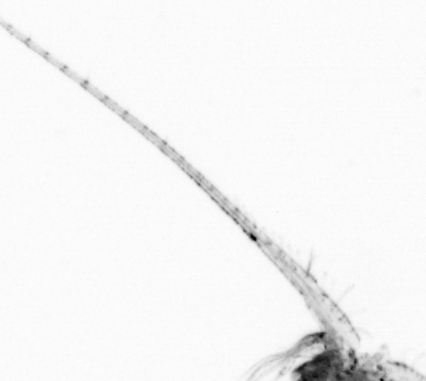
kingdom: Animalia
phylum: Arthropoda
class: Copepoda
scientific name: Copepoda
